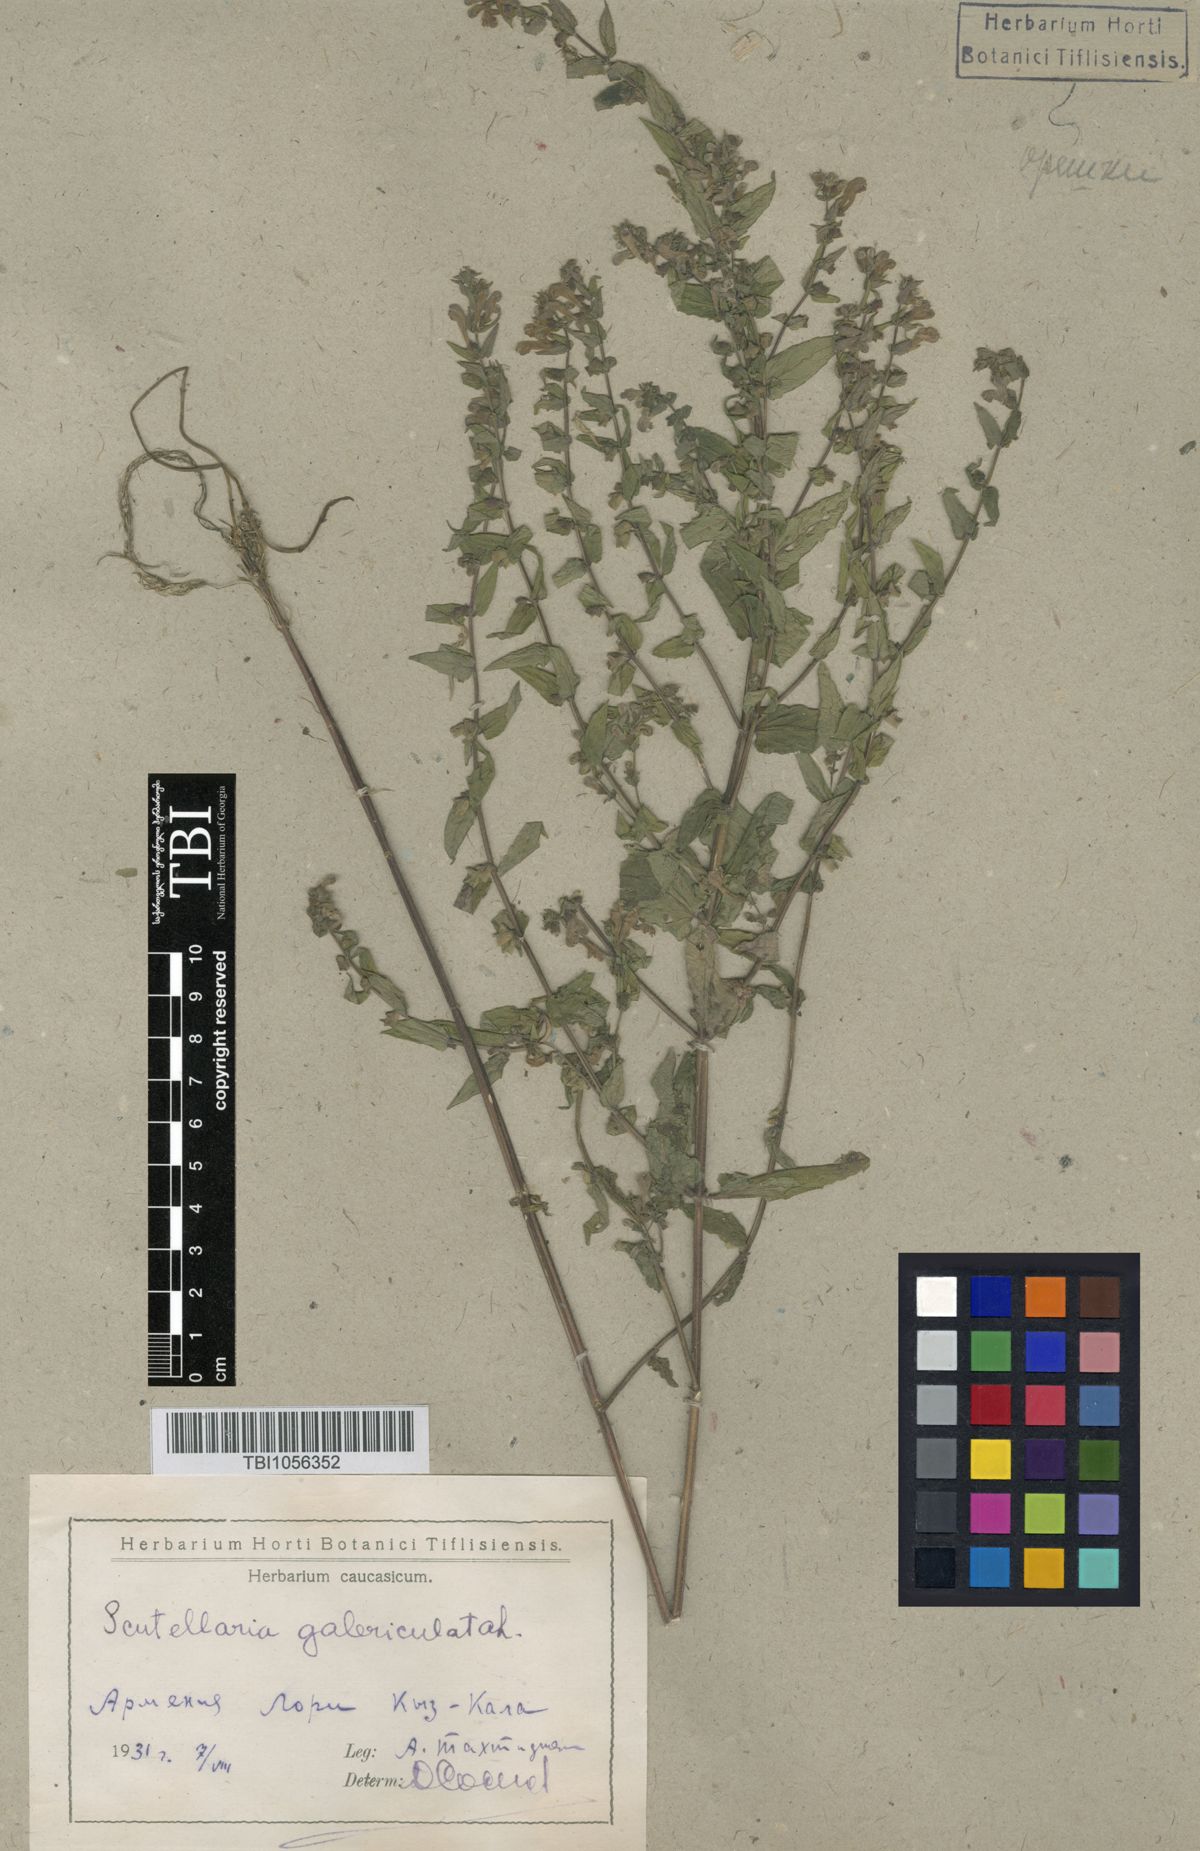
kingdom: Plantae
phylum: Tracheophyta
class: Magnoliopsida
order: Lamiales
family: Lamiaceae
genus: Scutellaria
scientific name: Scutellaria galericulata
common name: Skullcap
